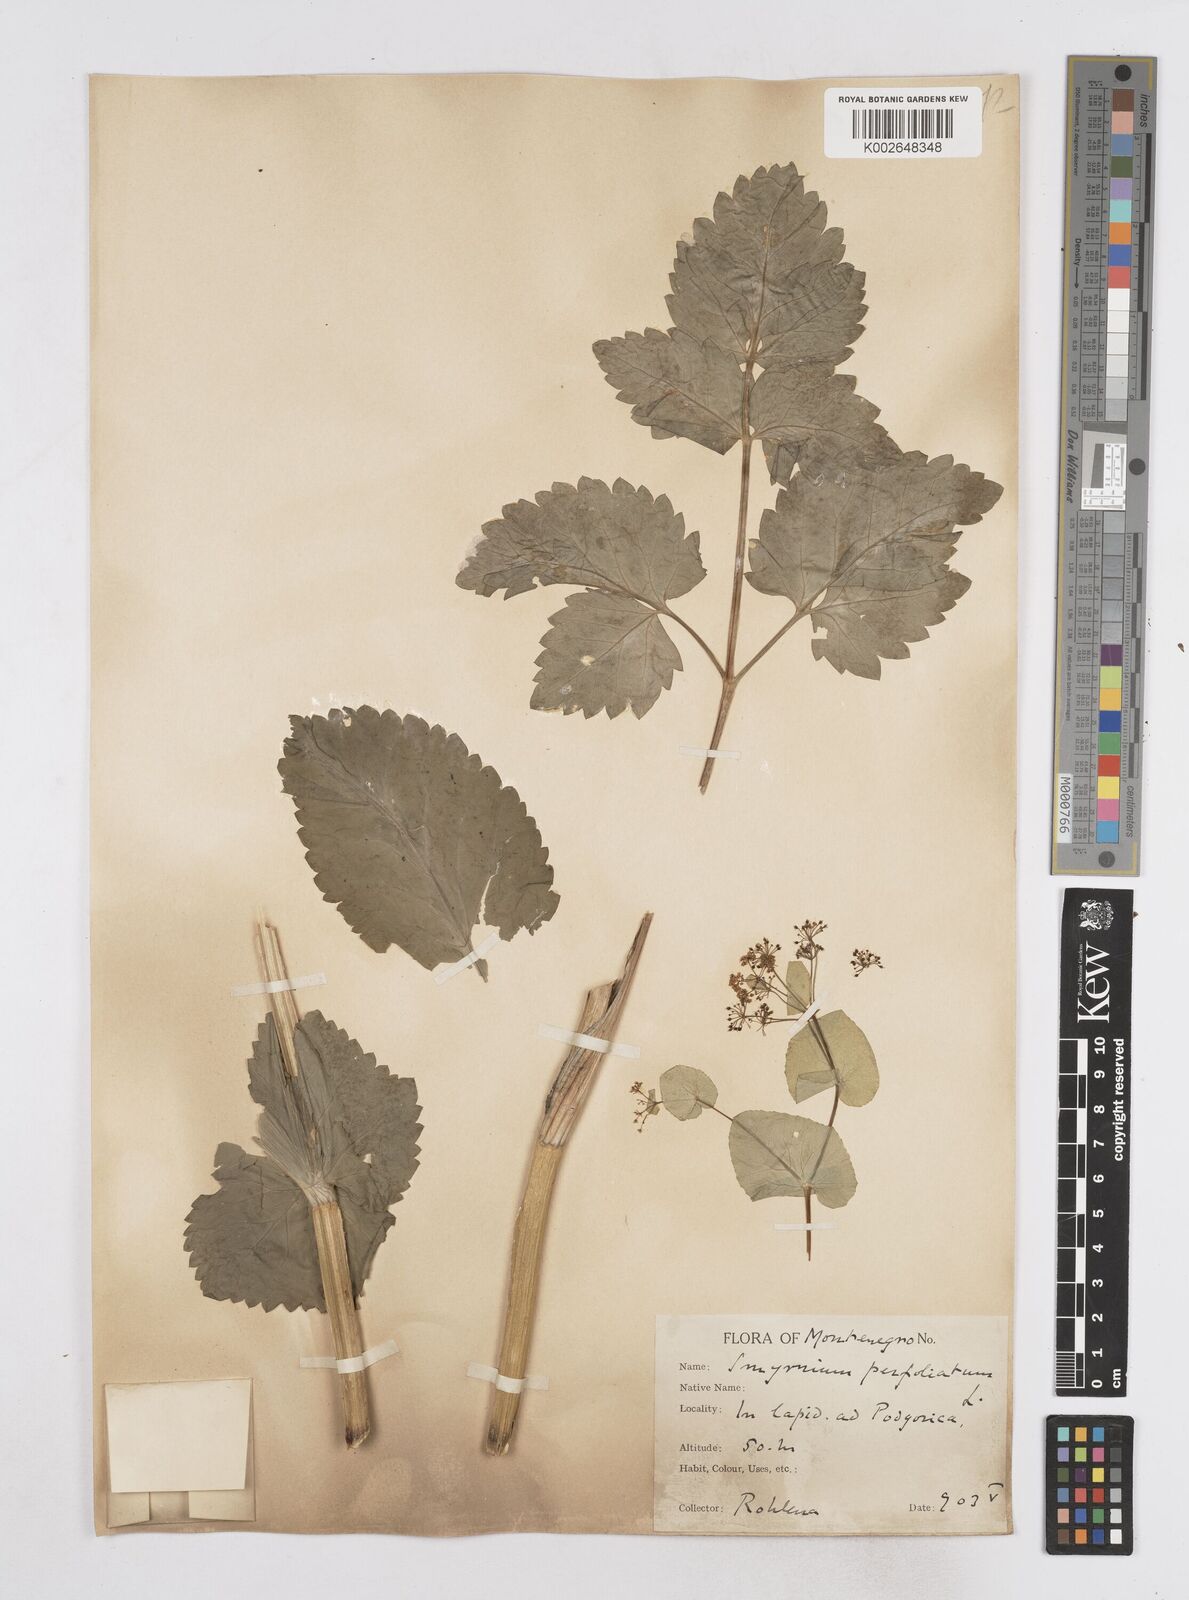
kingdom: Plantae
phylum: Tracheophyta
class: Magnoliopsida
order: Apiales
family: Apiaceae
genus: Smyrnium
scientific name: Smyrnium perfoliatum
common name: Perfoliate alexanders
